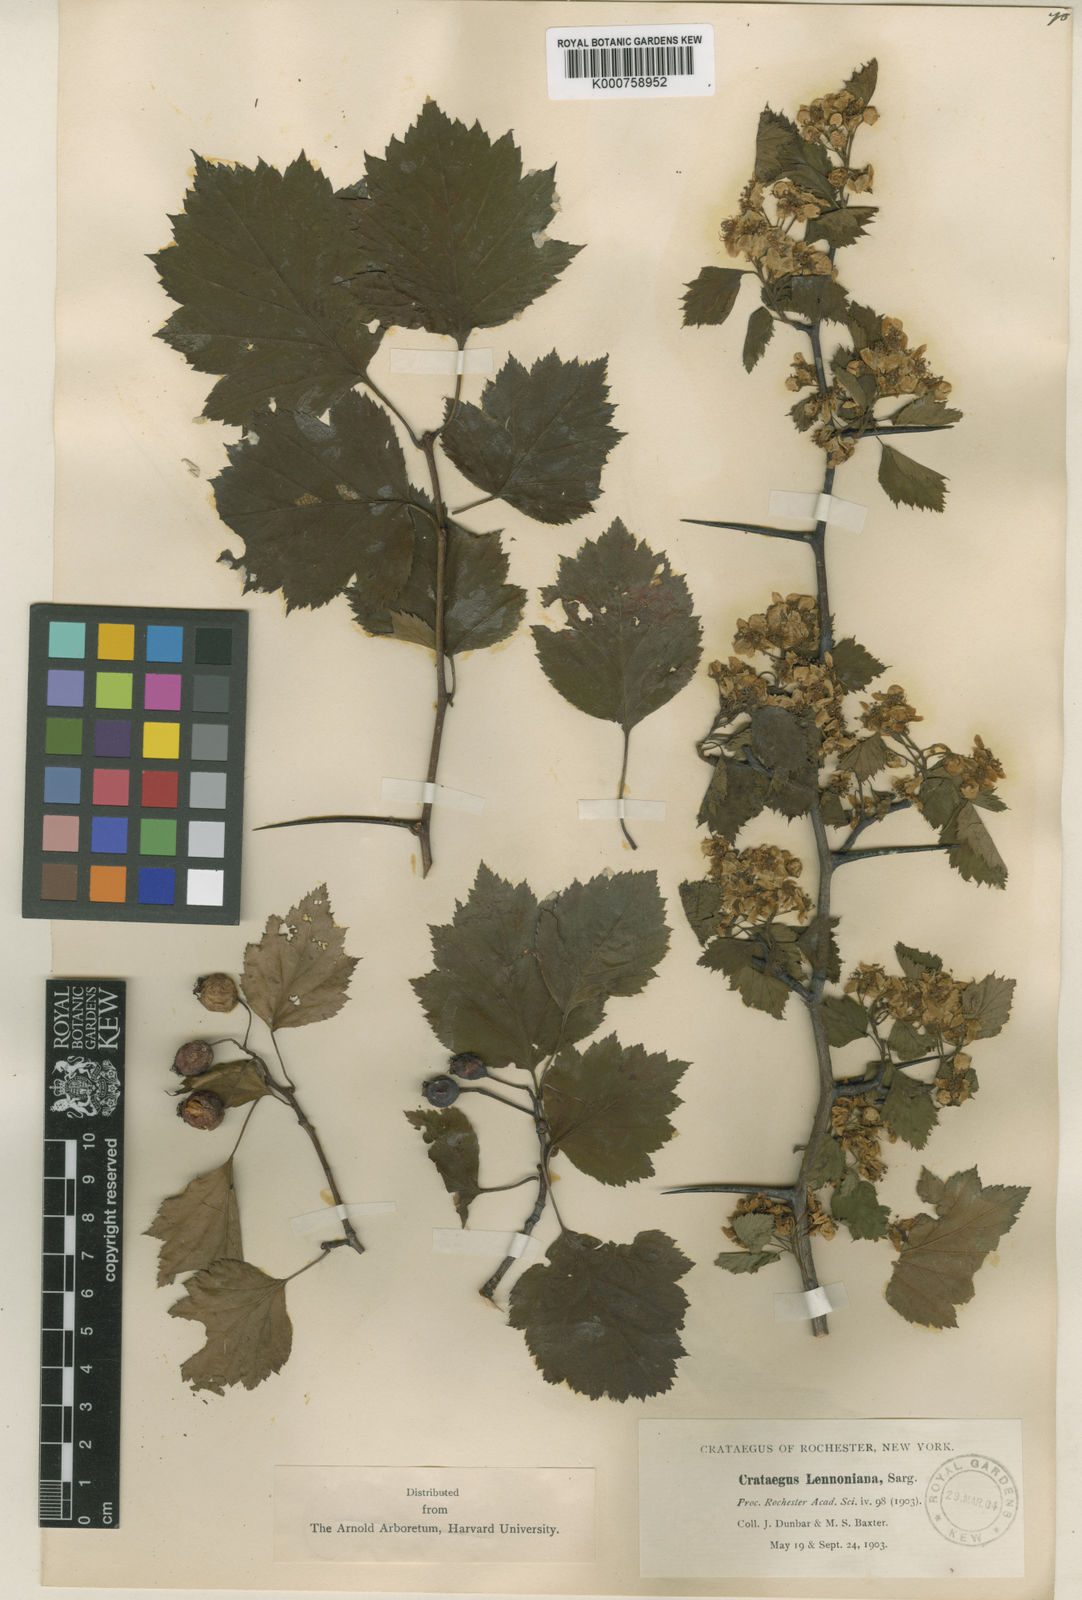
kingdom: Plantae
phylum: Tracheophyta
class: Magnoliopsida
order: Rosales
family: Rosaceae
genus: Crataegus
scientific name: Crataegus lennoniana
